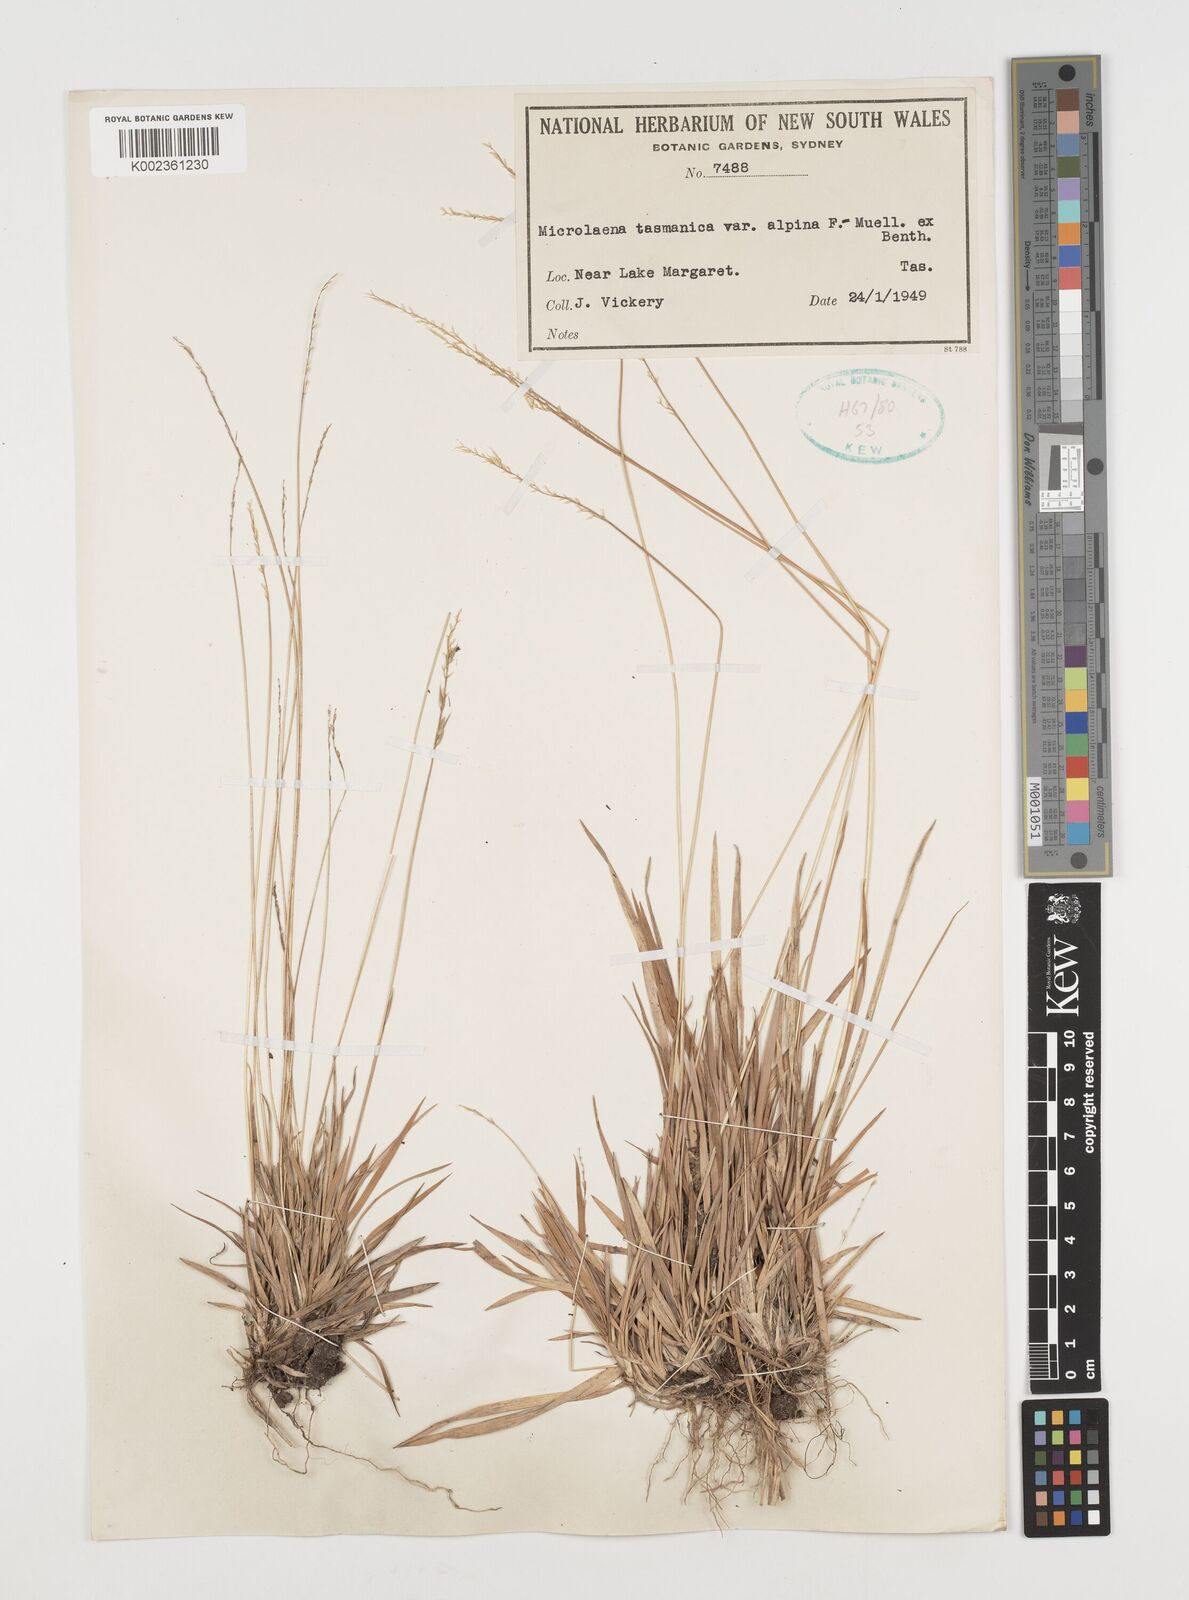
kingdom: Plantae
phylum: Tracheophyta
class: Liliopsida
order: Poales
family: Poaceae
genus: Microlaena
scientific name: Microlaena tasmanica
